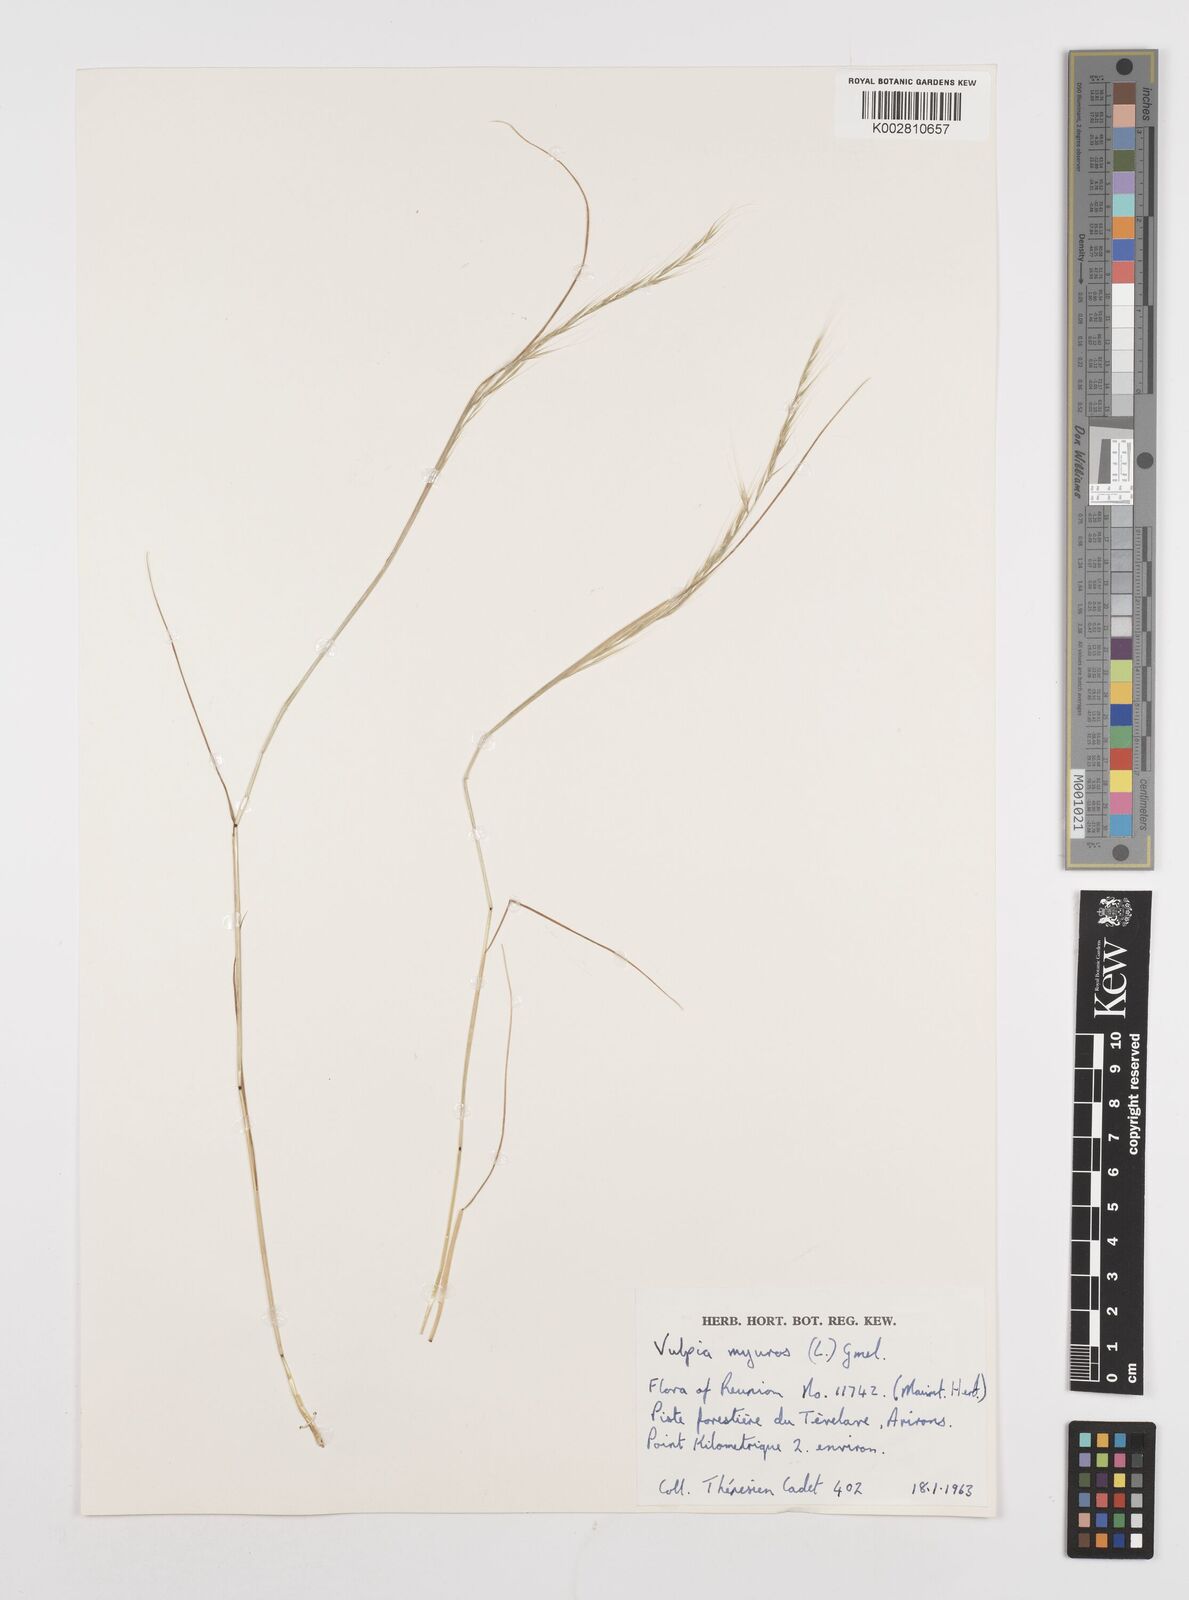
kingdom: Plantae
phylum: Tracheophyta
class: Liliopsida
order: Poales
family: Poaceae
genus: Festuca
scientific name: Festuca myuros
